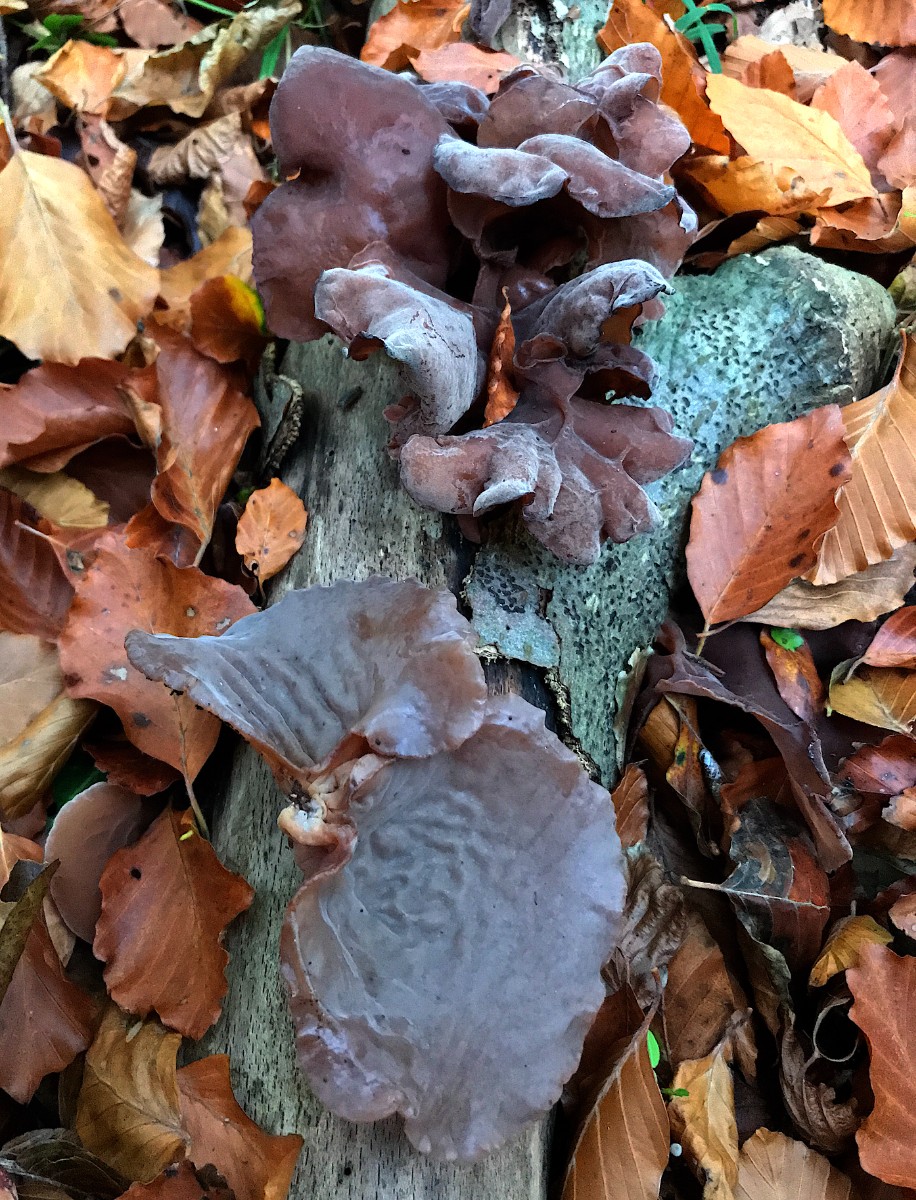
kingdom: Fungi
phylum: Basidiomycota
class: Agaricomycetes
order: Auriculariales
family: Auriculariaceae
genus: Auricularia
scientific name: Auricularia auricula-judae
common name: almindelig judasøre
